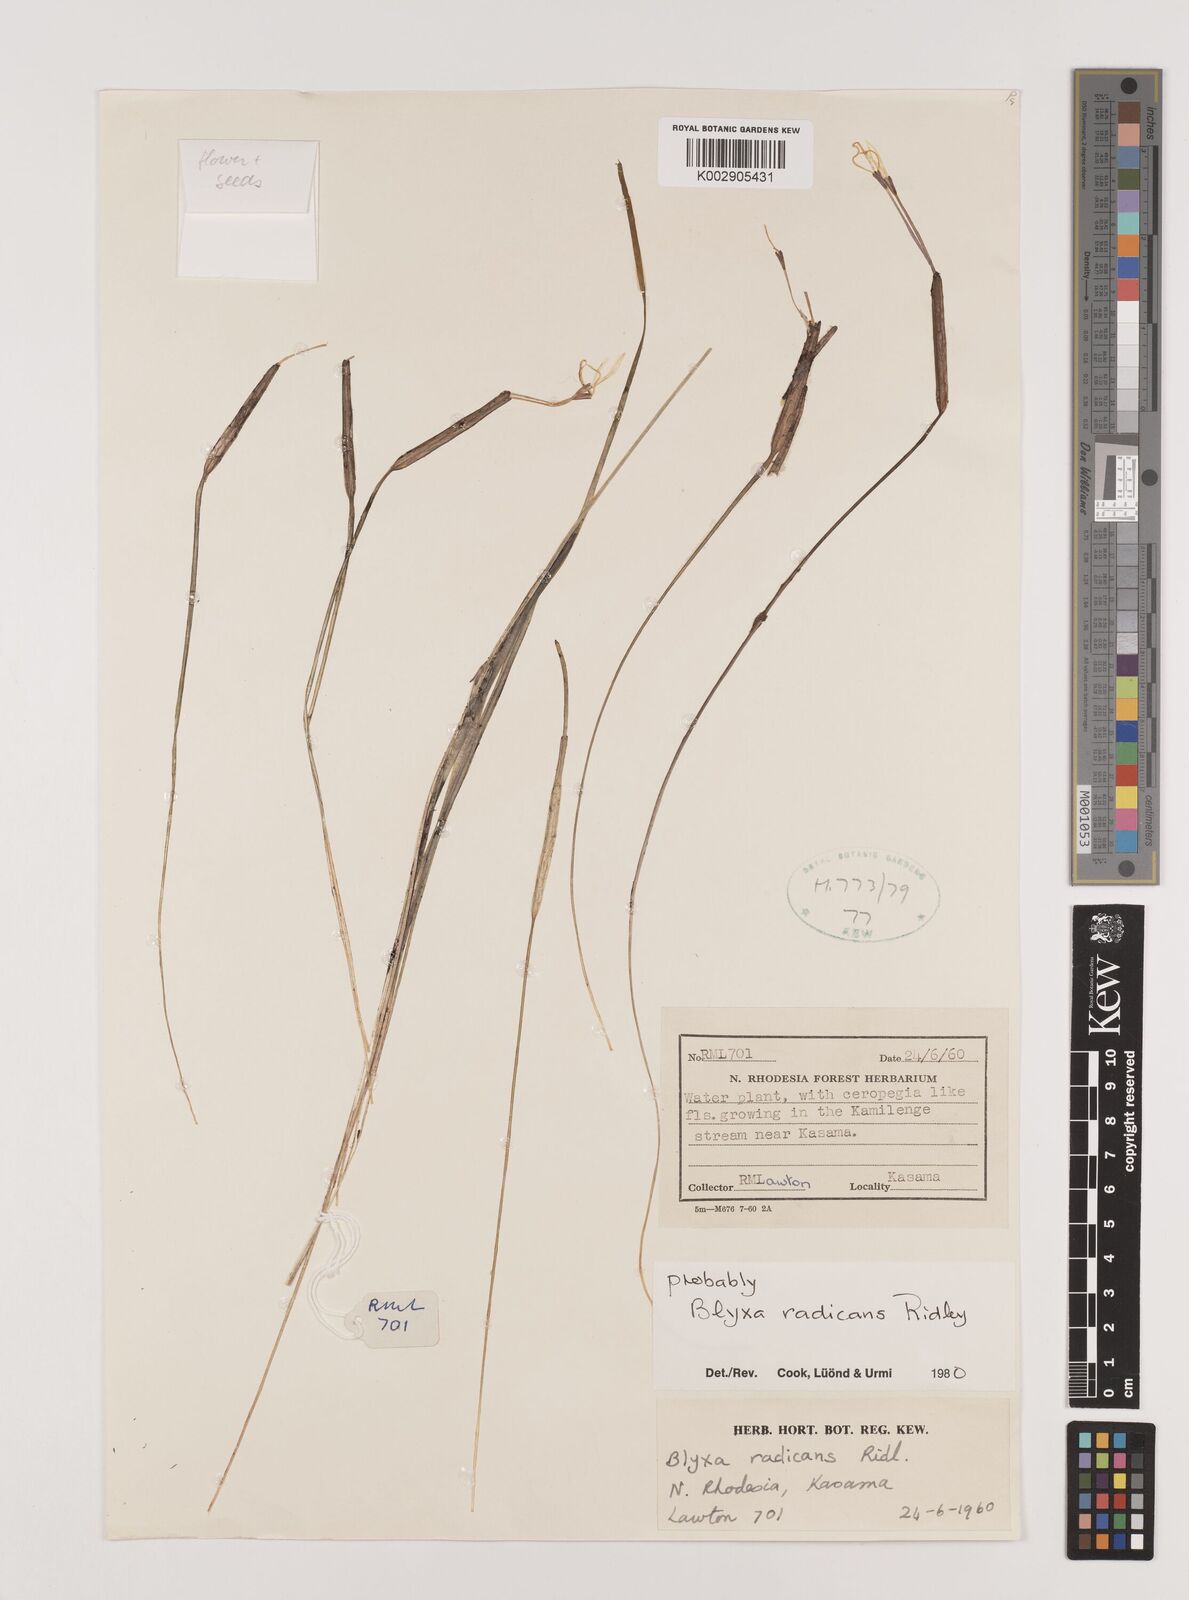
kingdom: Plantae
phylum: Tracheophyta
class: Liliopsida
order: Alismatales
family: Hydrocharitaceae
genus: Blyxa
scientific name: Blyxa radicans
